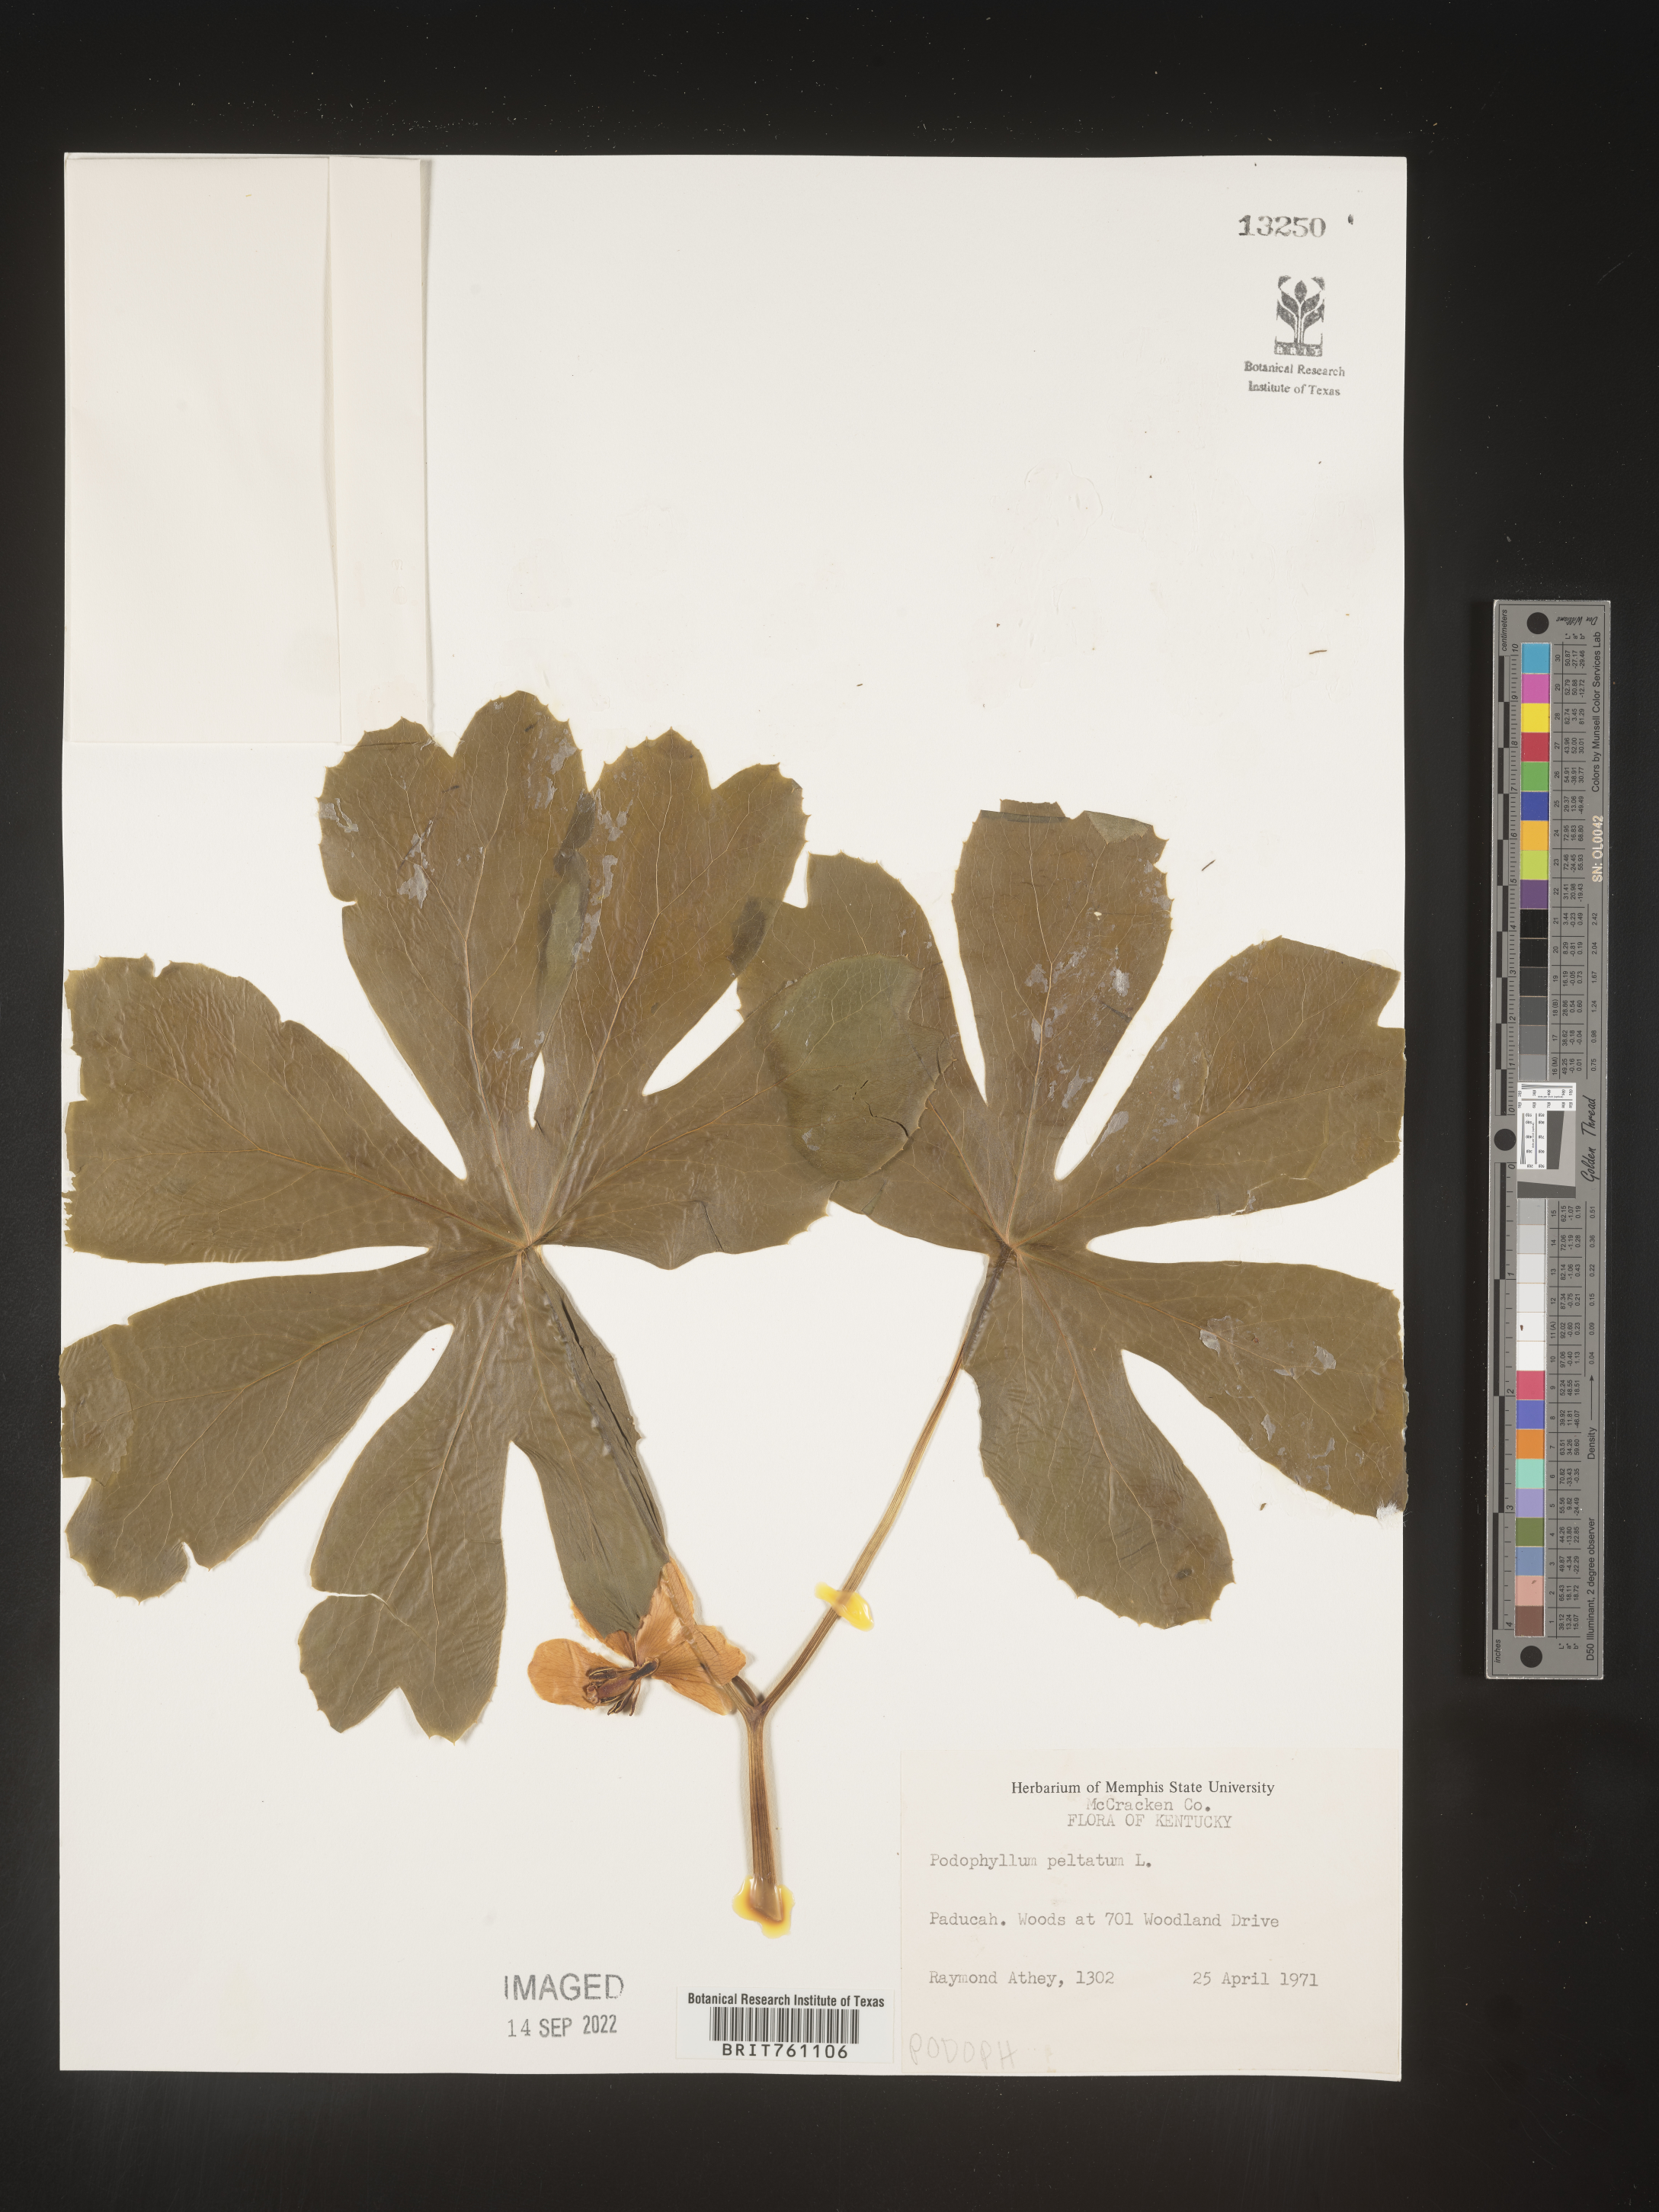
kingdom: Plantae
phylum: Tracheophyta
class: Magnoliopsida
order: Ranunculales
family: Berberidaceae
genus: Podophyllum
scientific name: Podophyllum peltatum
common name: Wild mandrake
